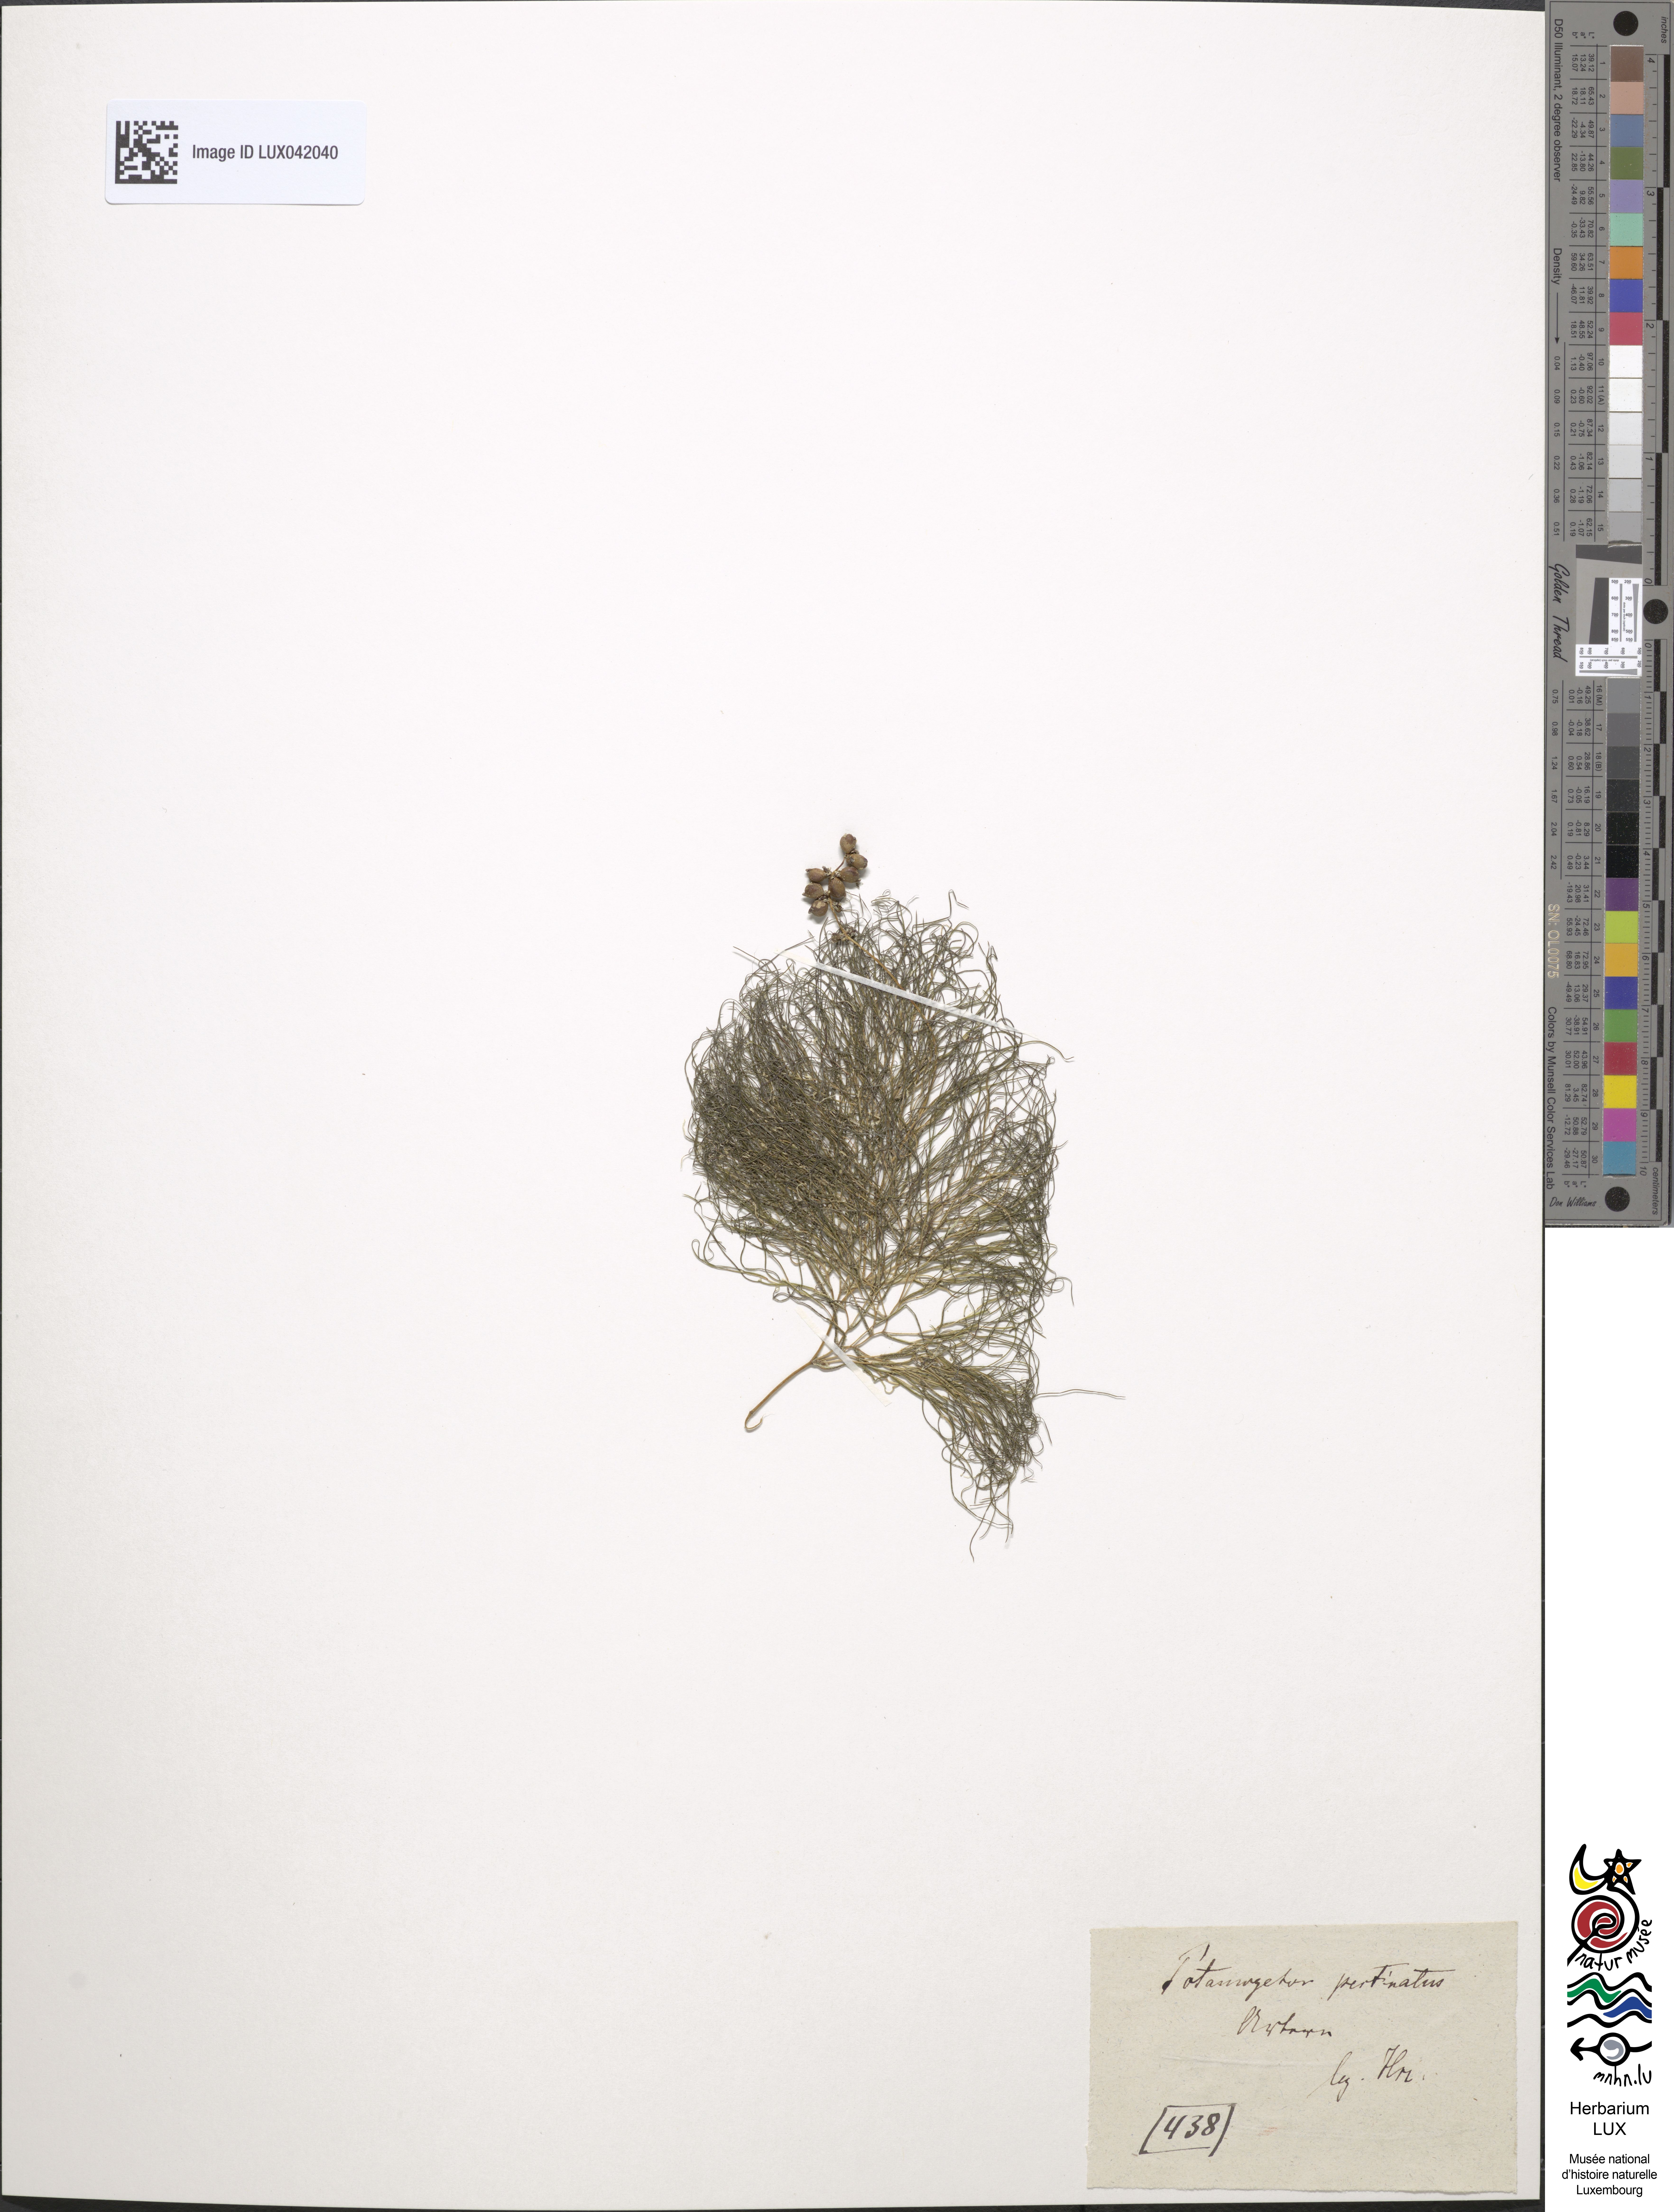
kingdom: Plantae
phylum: Tracheophyta
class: Liliopsida
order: Alismatales
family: Potamogetonaceae
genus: Stuckenia
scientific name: Stuckenia pectinata
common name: Sago pondweed
